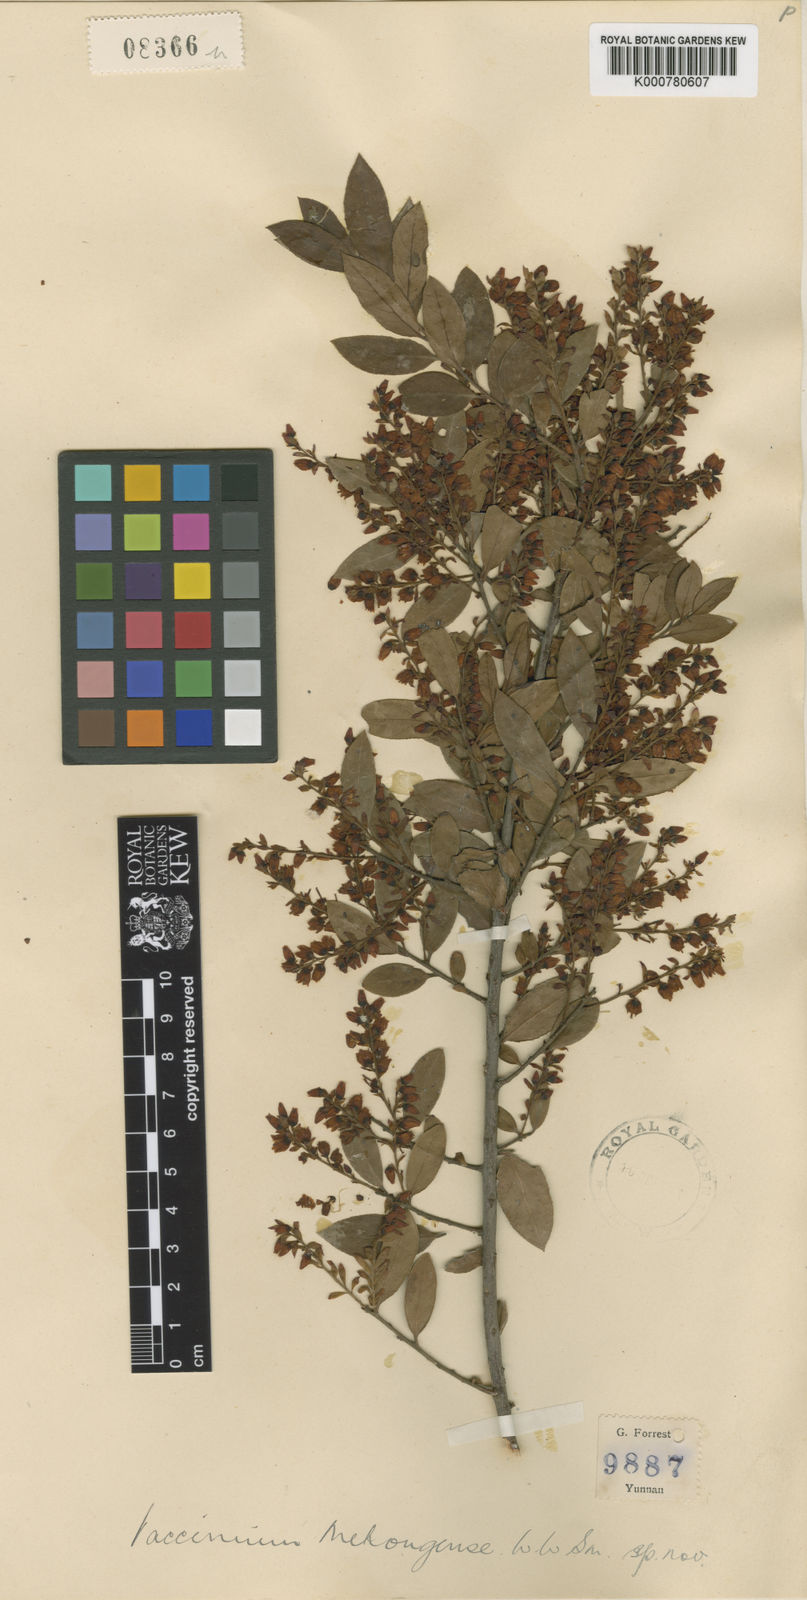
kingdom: Plantae
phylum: Tracheophyta
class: Magnoliopsida
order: Ericales
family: Ericaceae
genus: Vaccinium
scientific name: Vaccinium fragile
